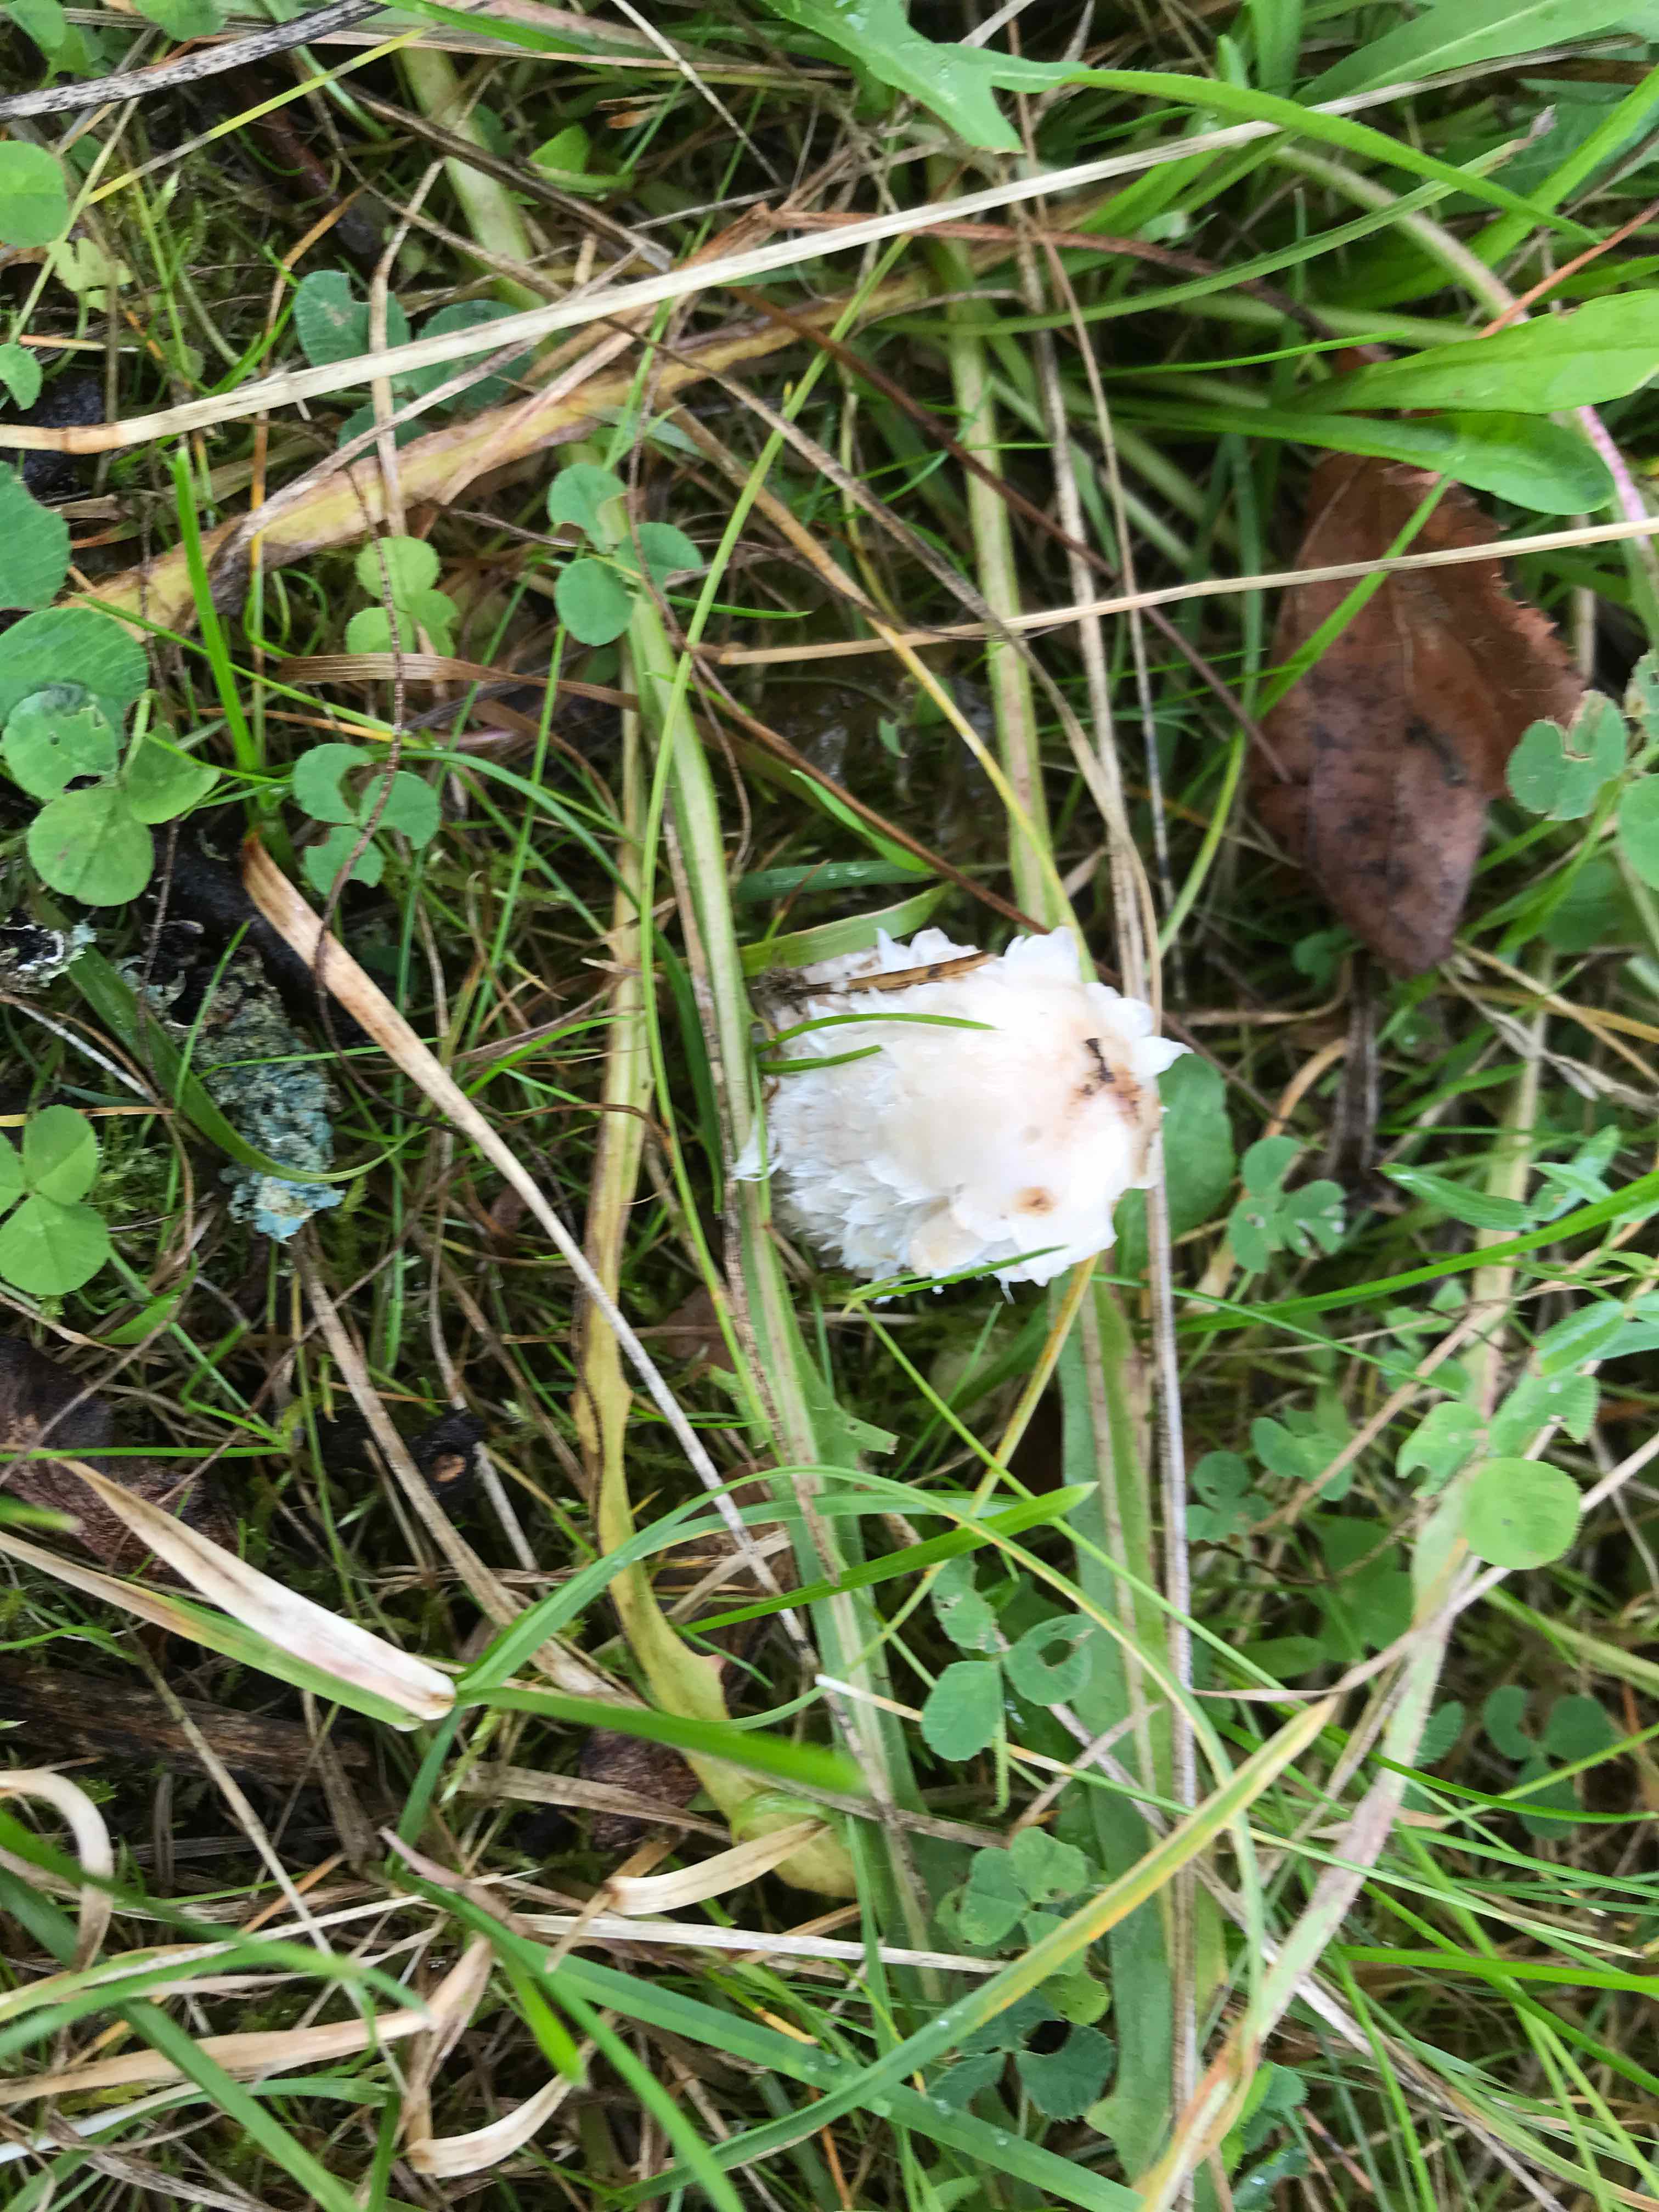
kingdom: Fungi
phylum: Basidiomycota
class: Agaricomycetes
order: Agaricales
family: Agaricaceae
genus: Coprinus
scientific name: Coprinus comatus
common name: stor parykhat
